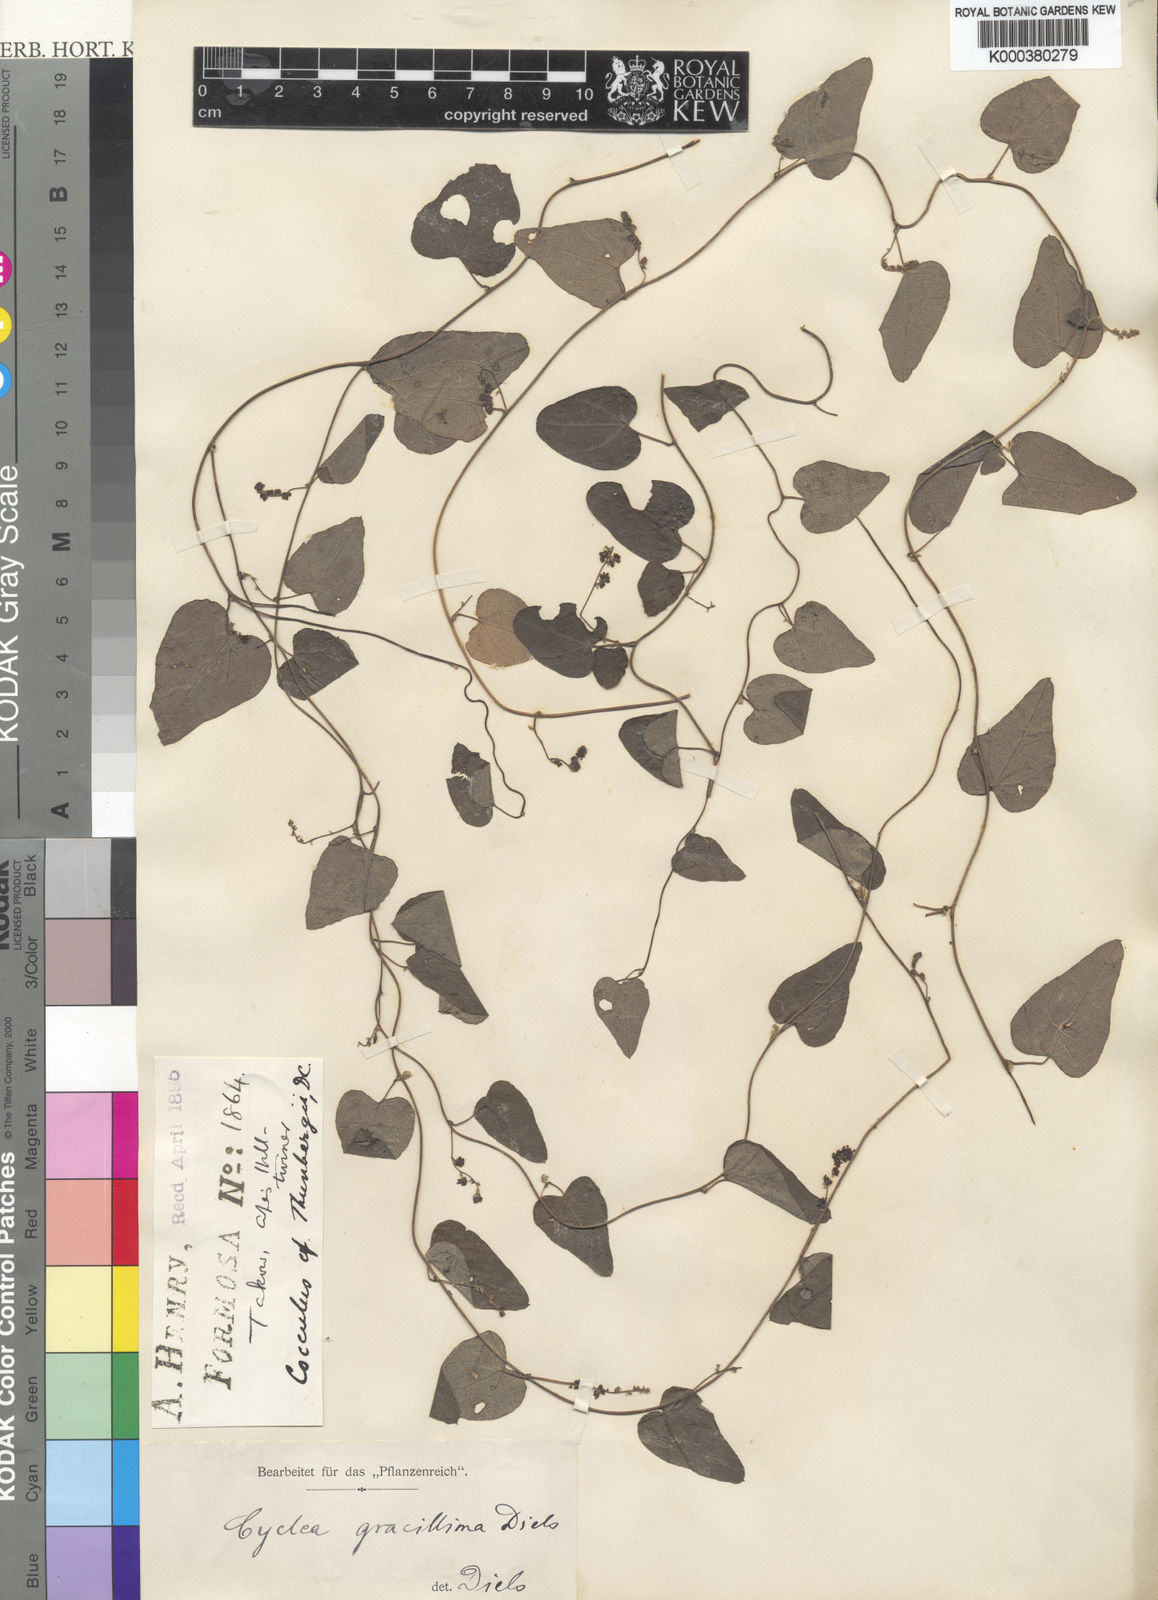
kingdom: Plantae
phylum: Tracheophyta
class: Magnoliopsida
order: Ranunculales
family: Menispermaceae
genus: Cyclea
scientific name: Cyclea gracillima
